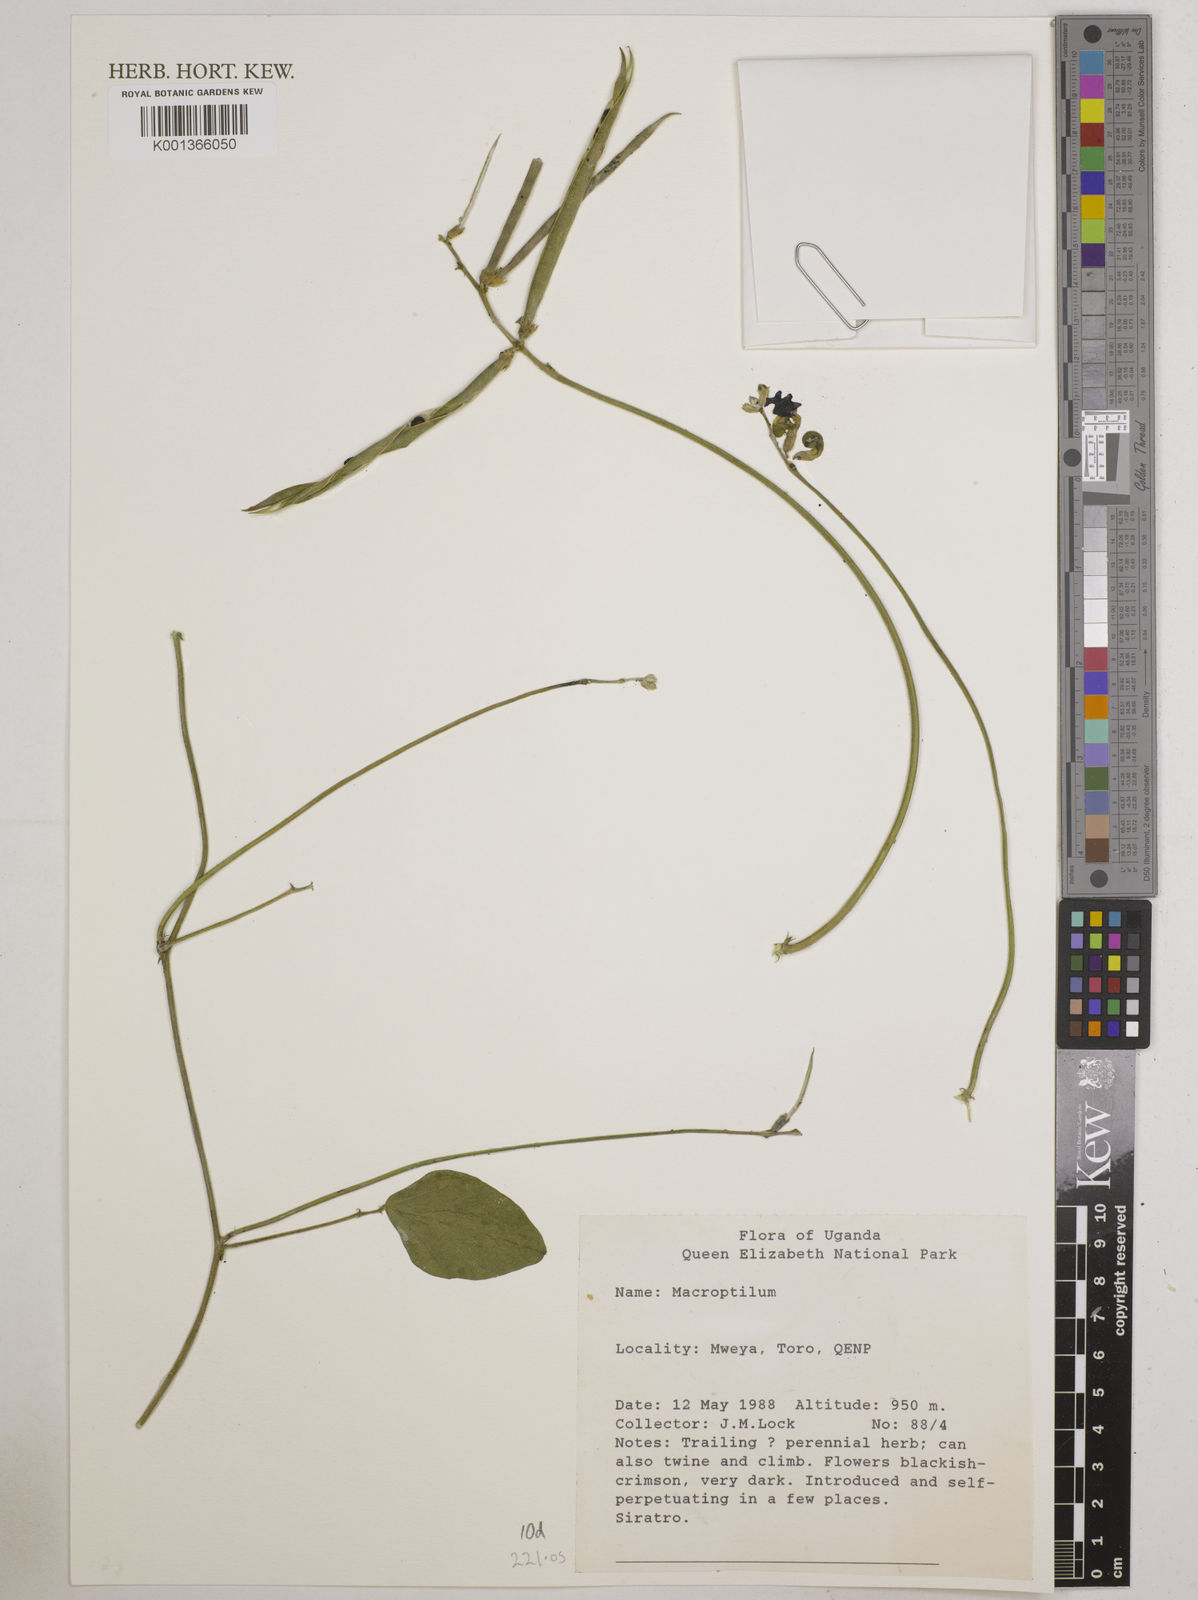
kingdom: Plantae
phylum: Tracheophyta
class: Magnoliopsida
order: Fabales
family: Fabaceae
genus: Macroptilium
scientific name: Macroptilium
